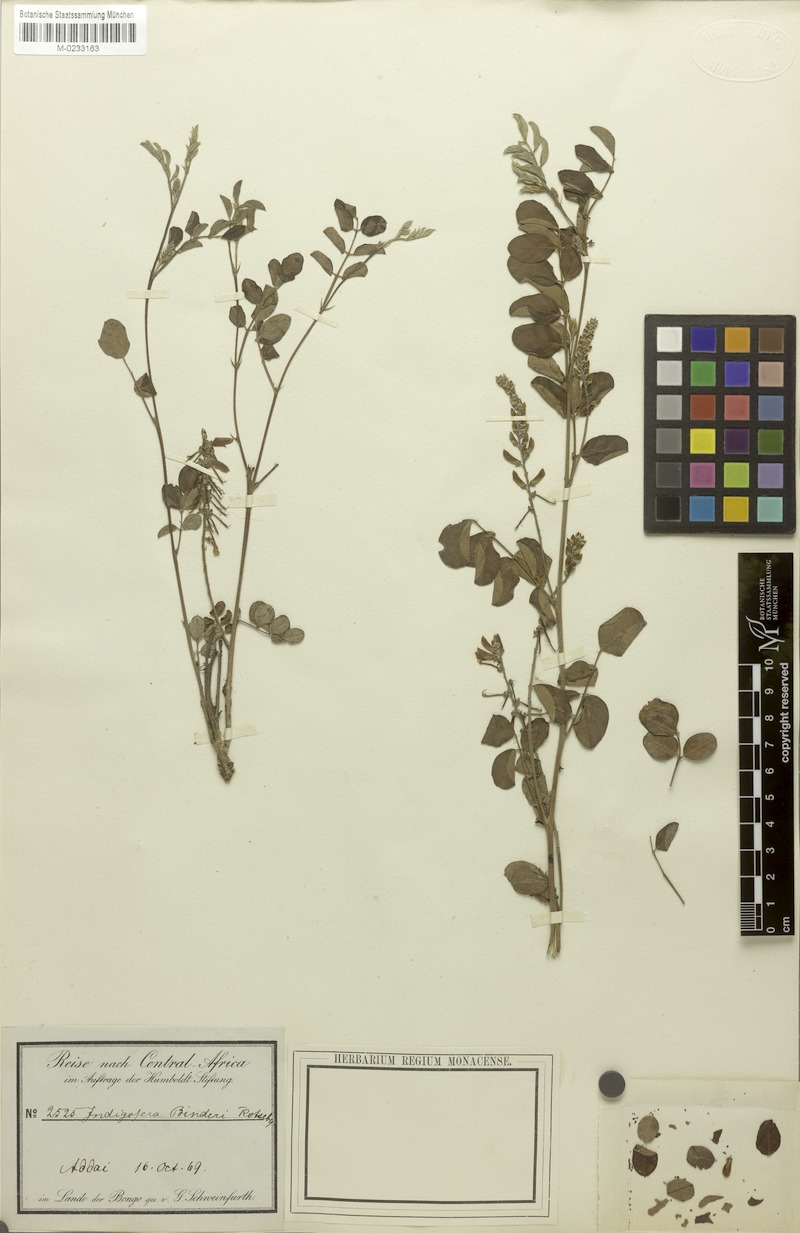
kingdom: Plantae
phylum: Tracheophyta
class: Magnoliopsida
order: Fabales
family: Fabaceae
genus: Indigofera
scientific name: Indigofera binderi
